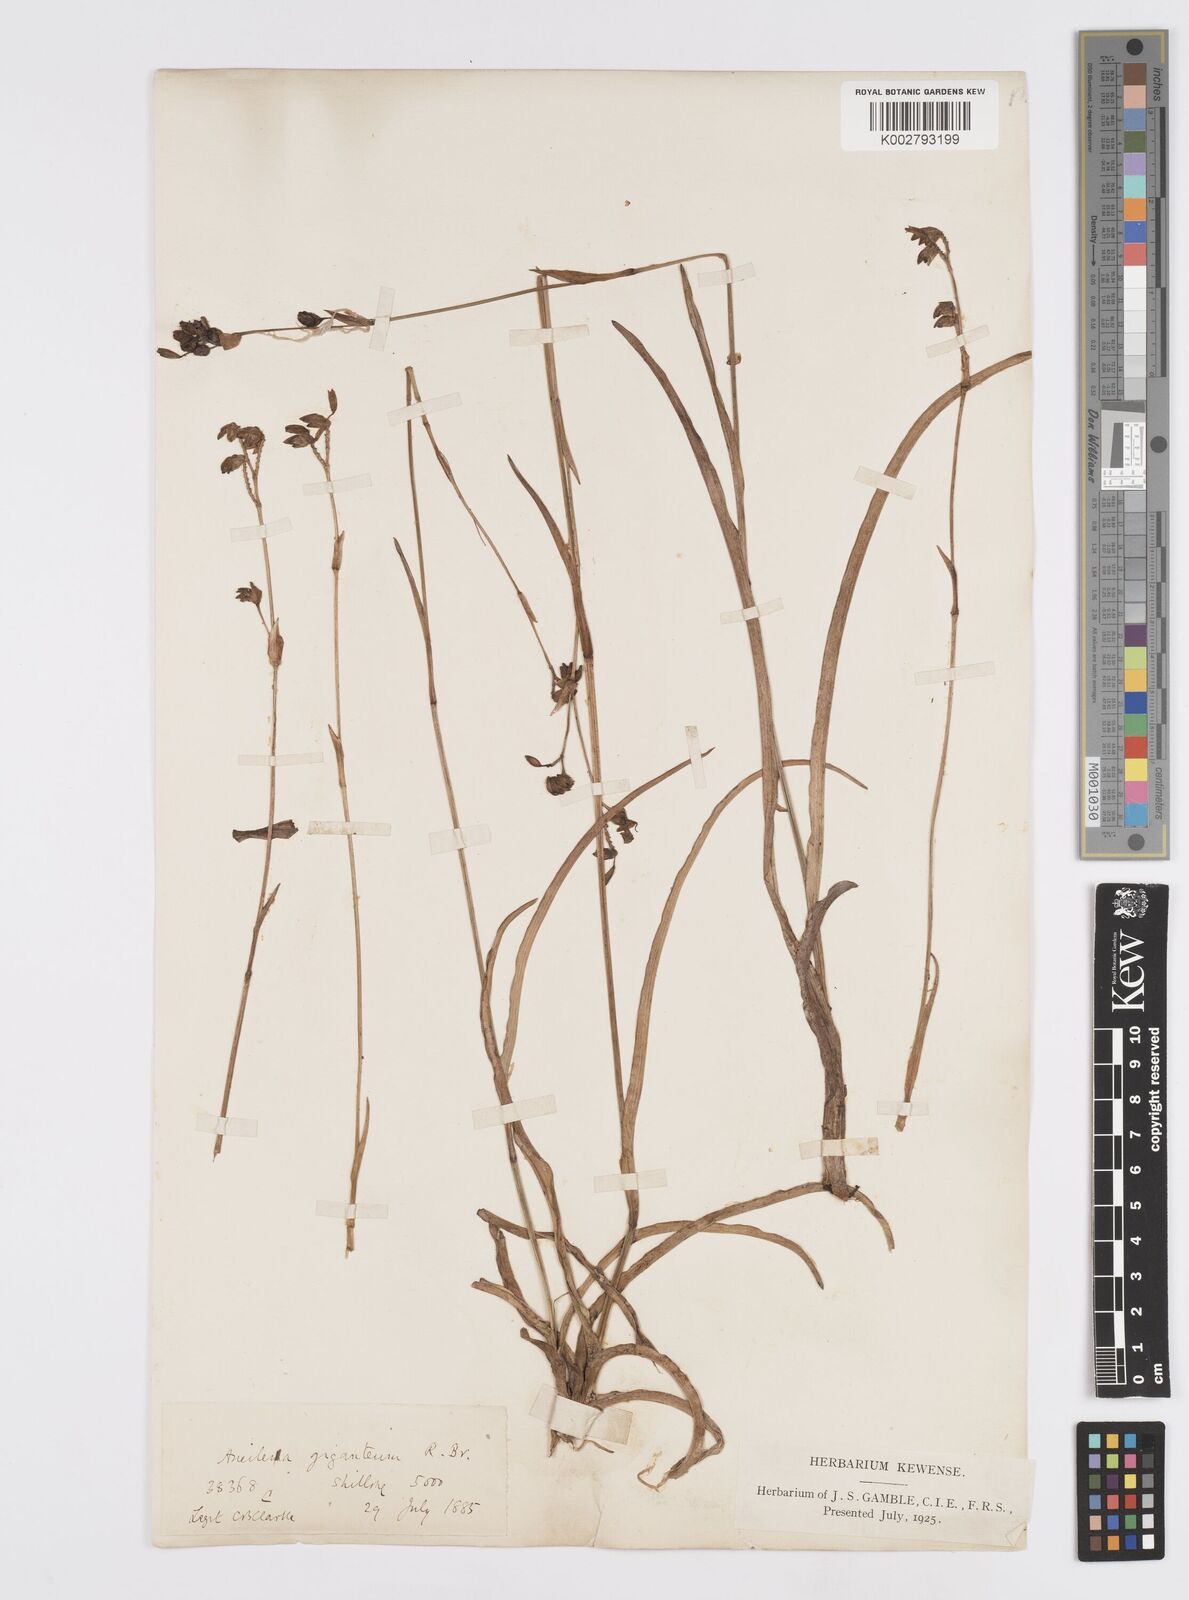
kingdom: Plantae
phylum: Tracheophyta
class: Liliopsida
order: Commelinales
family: Commelinaceae
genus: Murdannia
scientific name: Murdannia simplex
